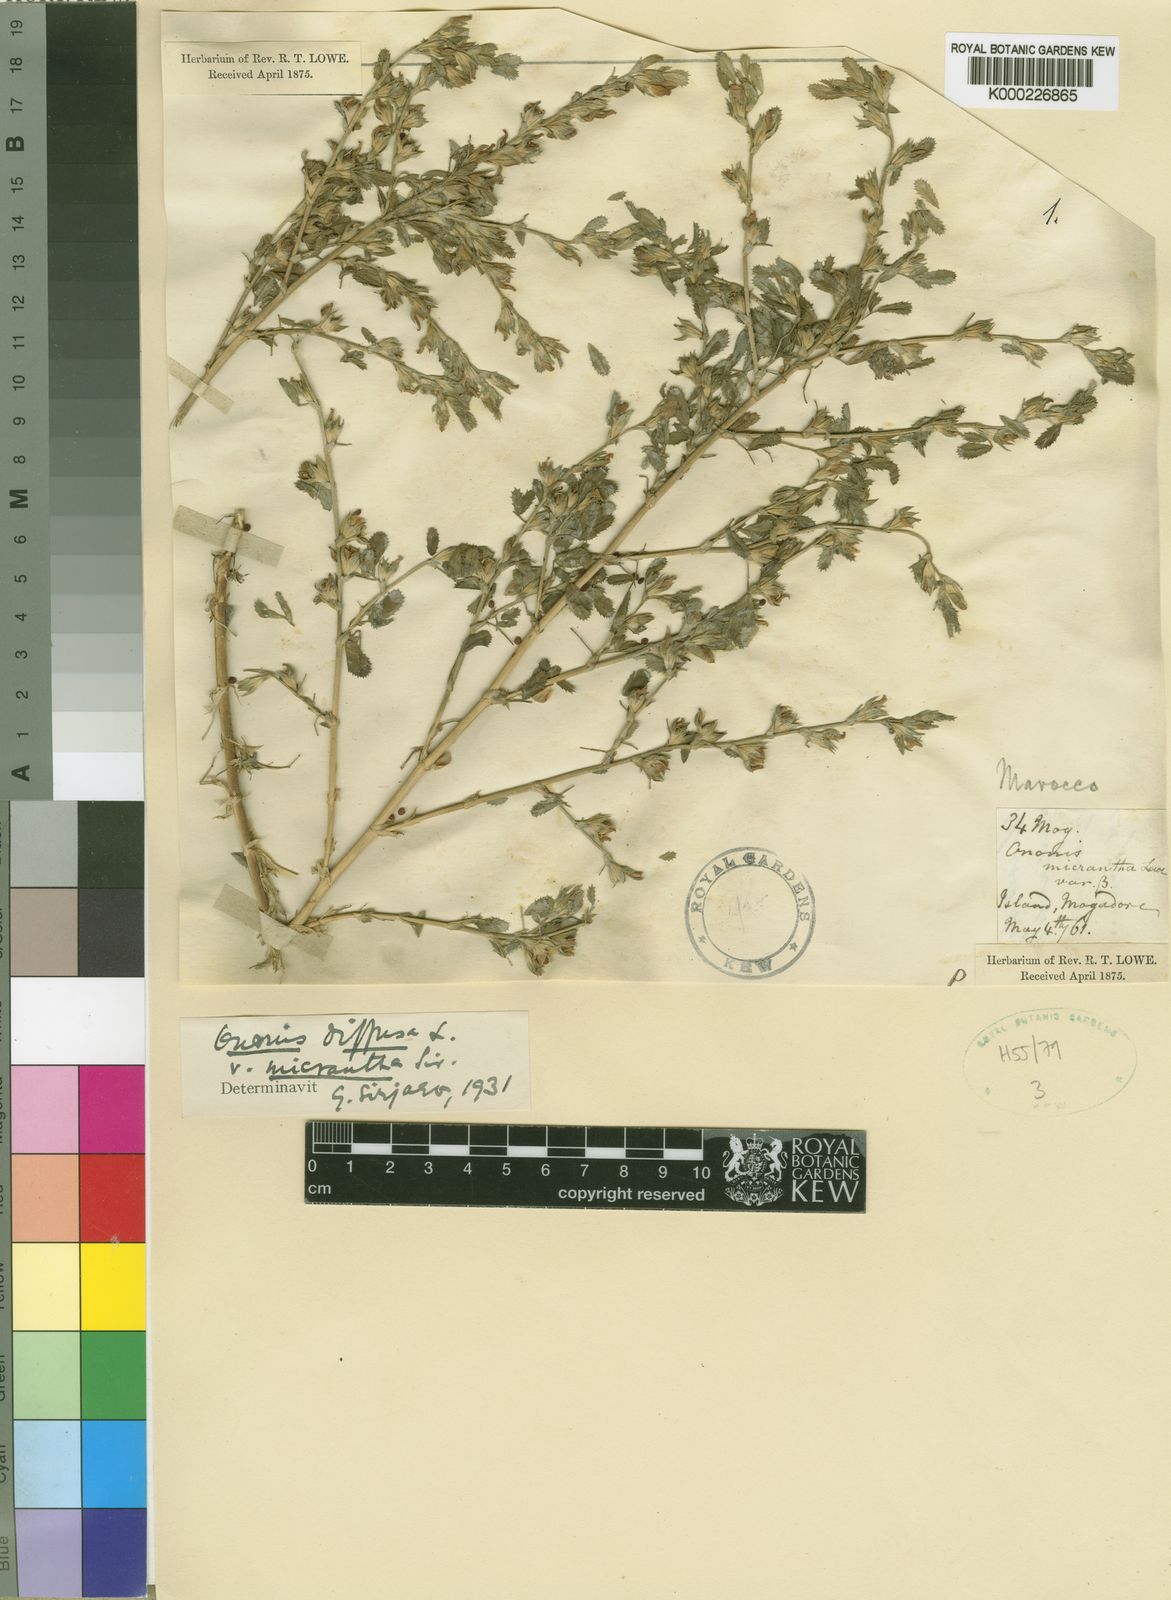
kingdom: Plantae
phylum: Tracheophyta
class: Magnoliopsida
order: Fabales
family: Fabaceae
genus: Ononis
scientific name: Ononis
